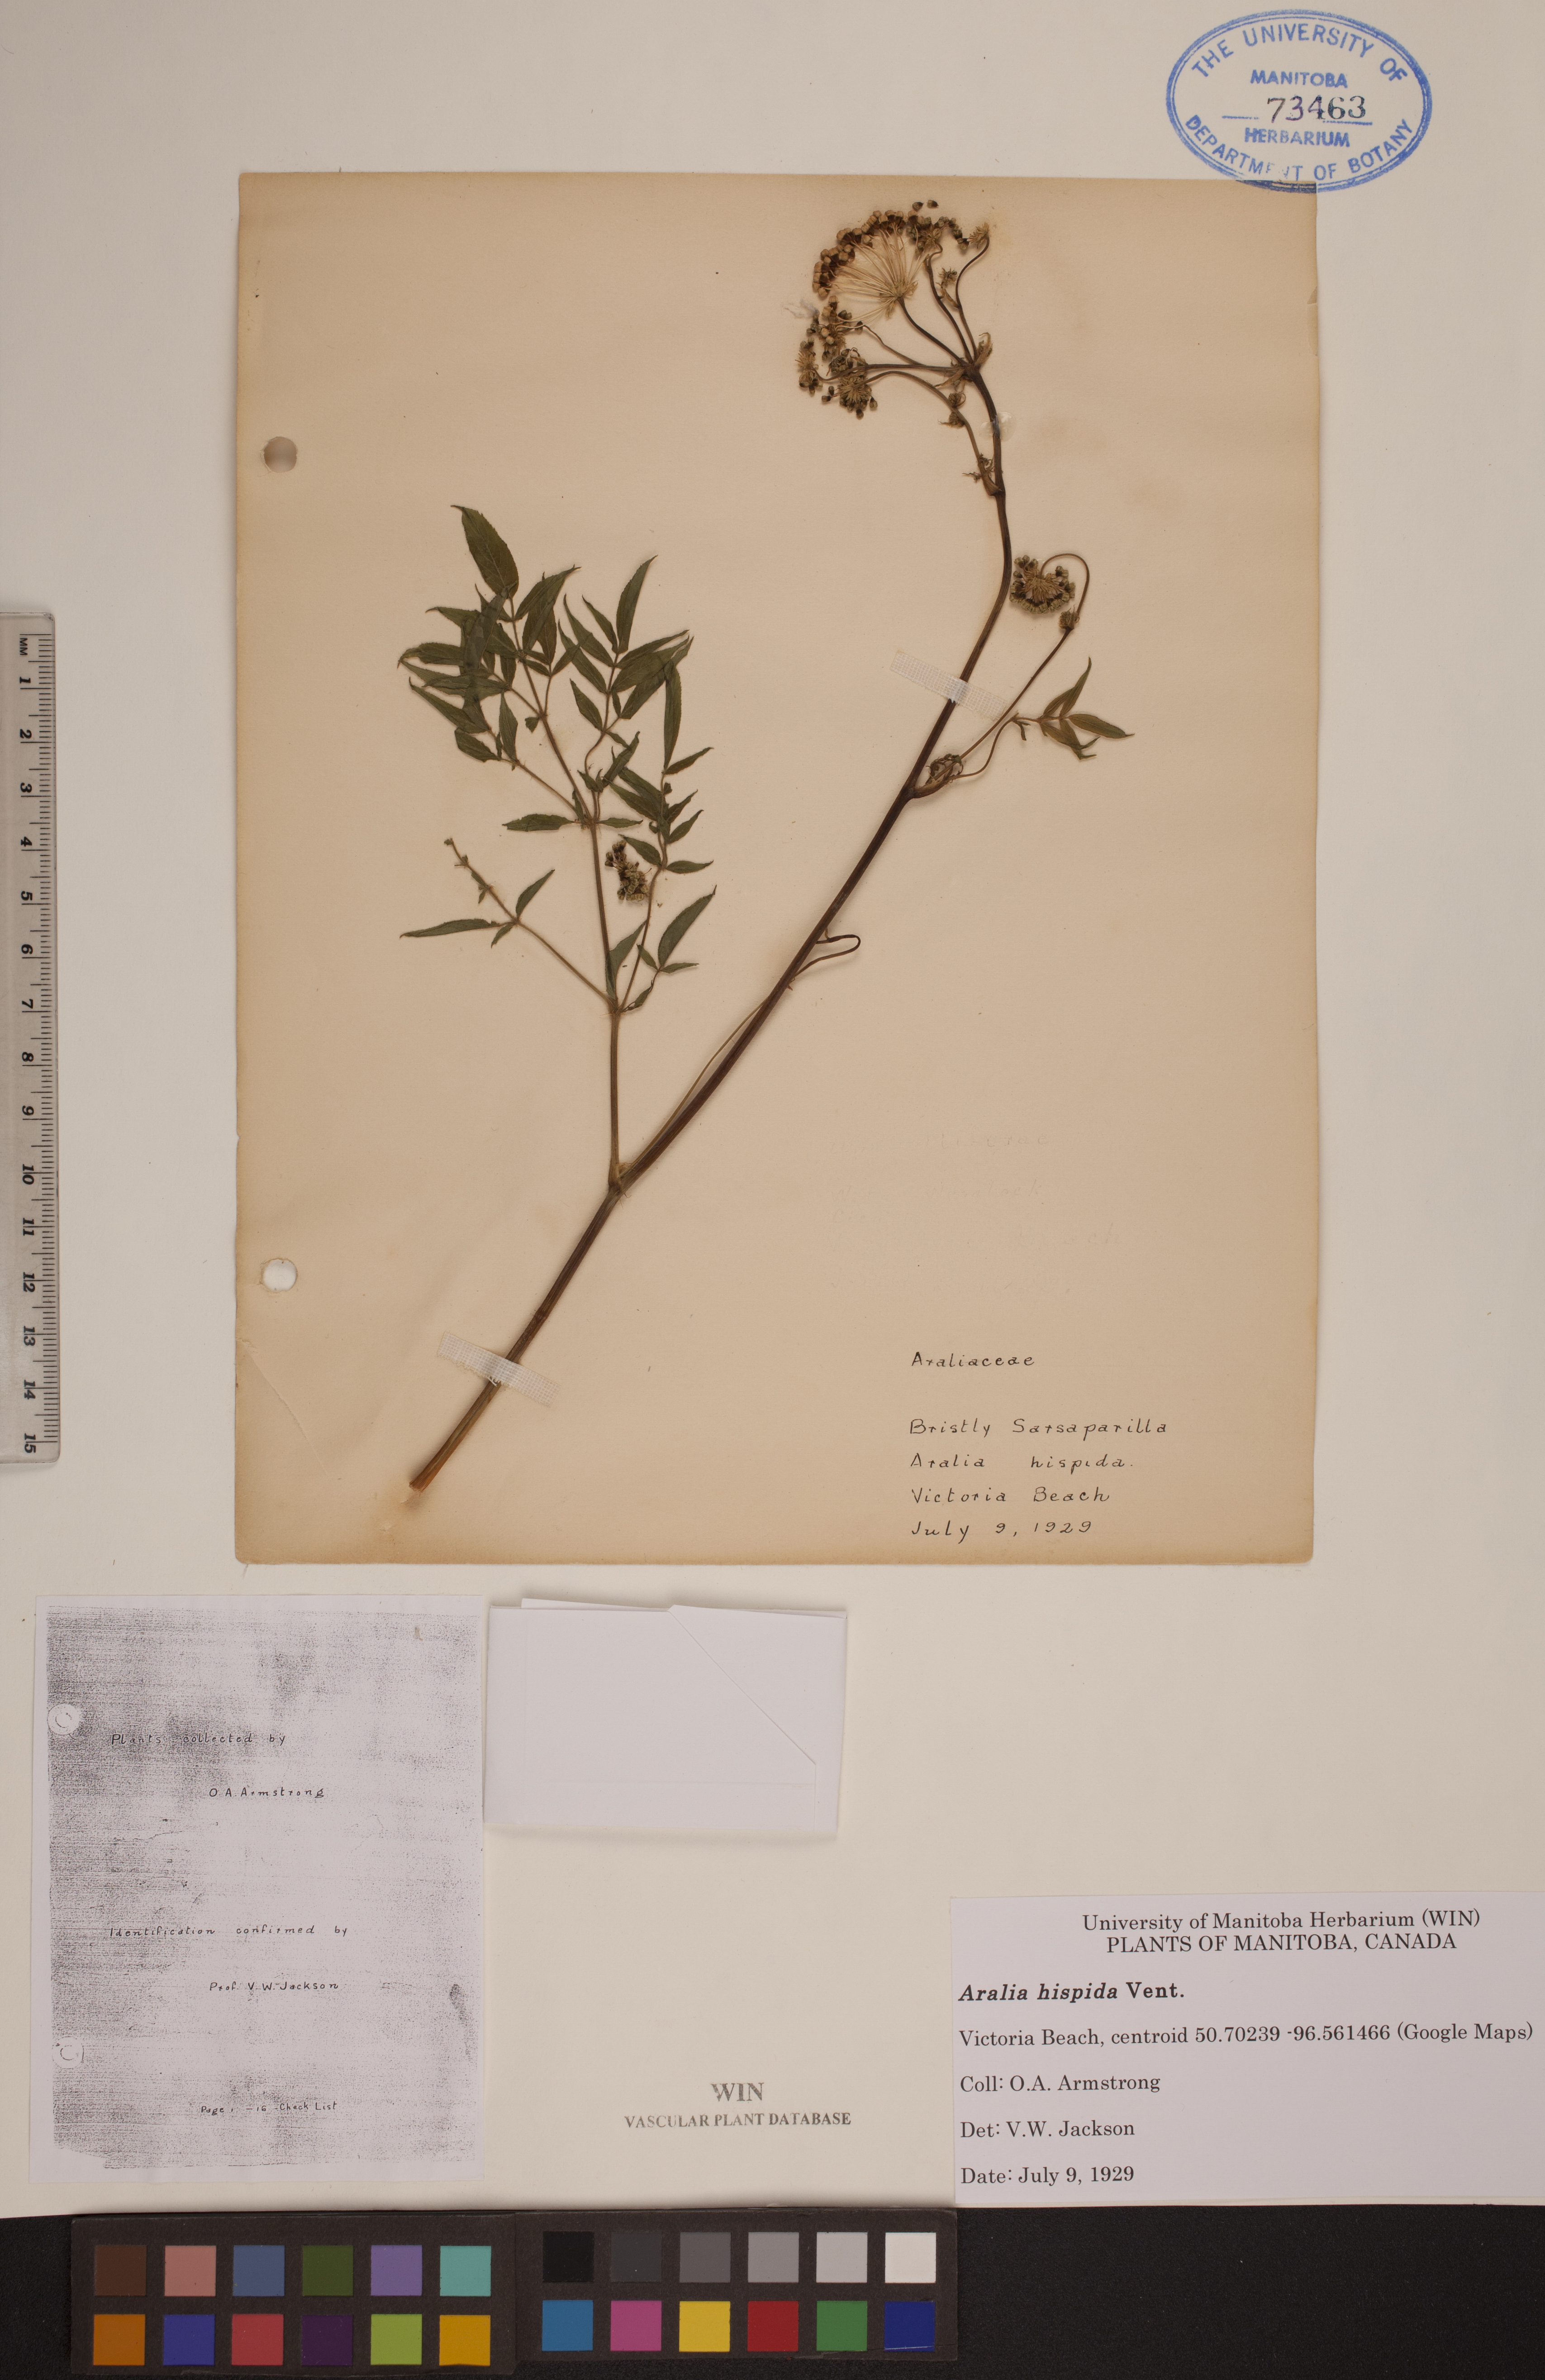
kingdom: Plantae
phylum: Tracheophyta
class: Magnoliopsida
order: Apiales
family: Araliaceae
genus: Aralia
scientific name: Aralia hispida
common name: Bristly sarsaparilla
